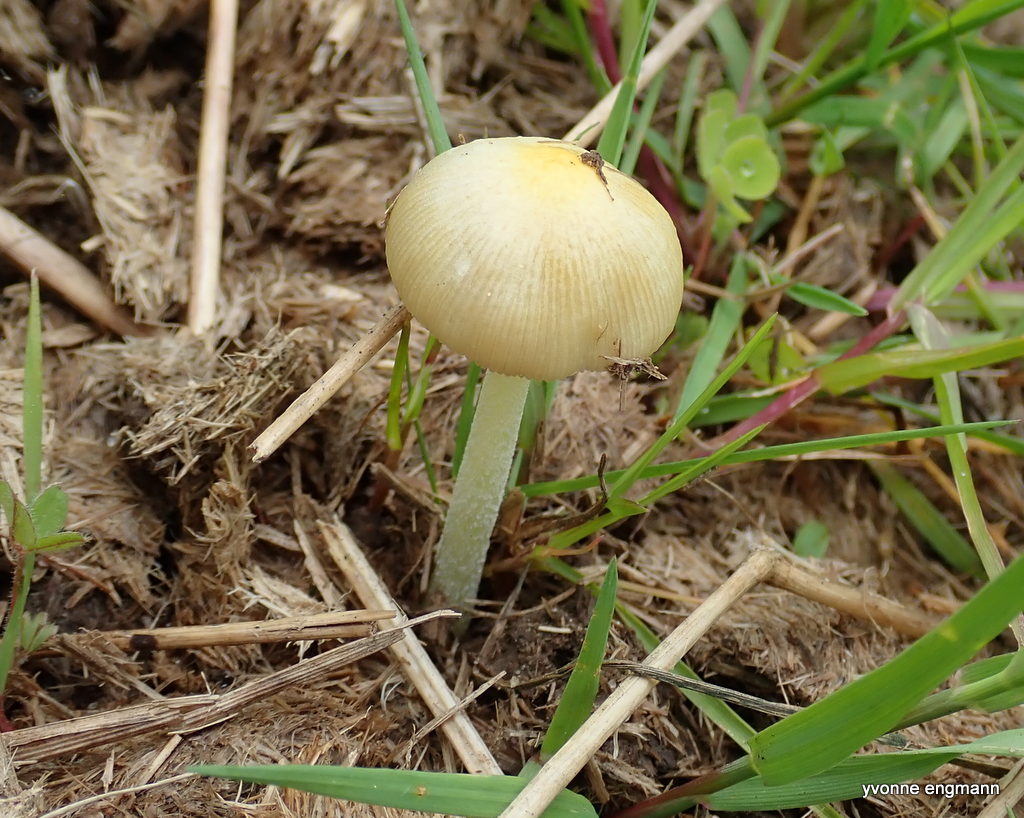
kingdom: Fungi
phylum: Basidiomycota
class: Agaricomycetes
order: Agaricales
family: Bolbitiaceae
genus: Bolbitius
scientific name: Bolbitius titubans
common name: almindelig gulhat
